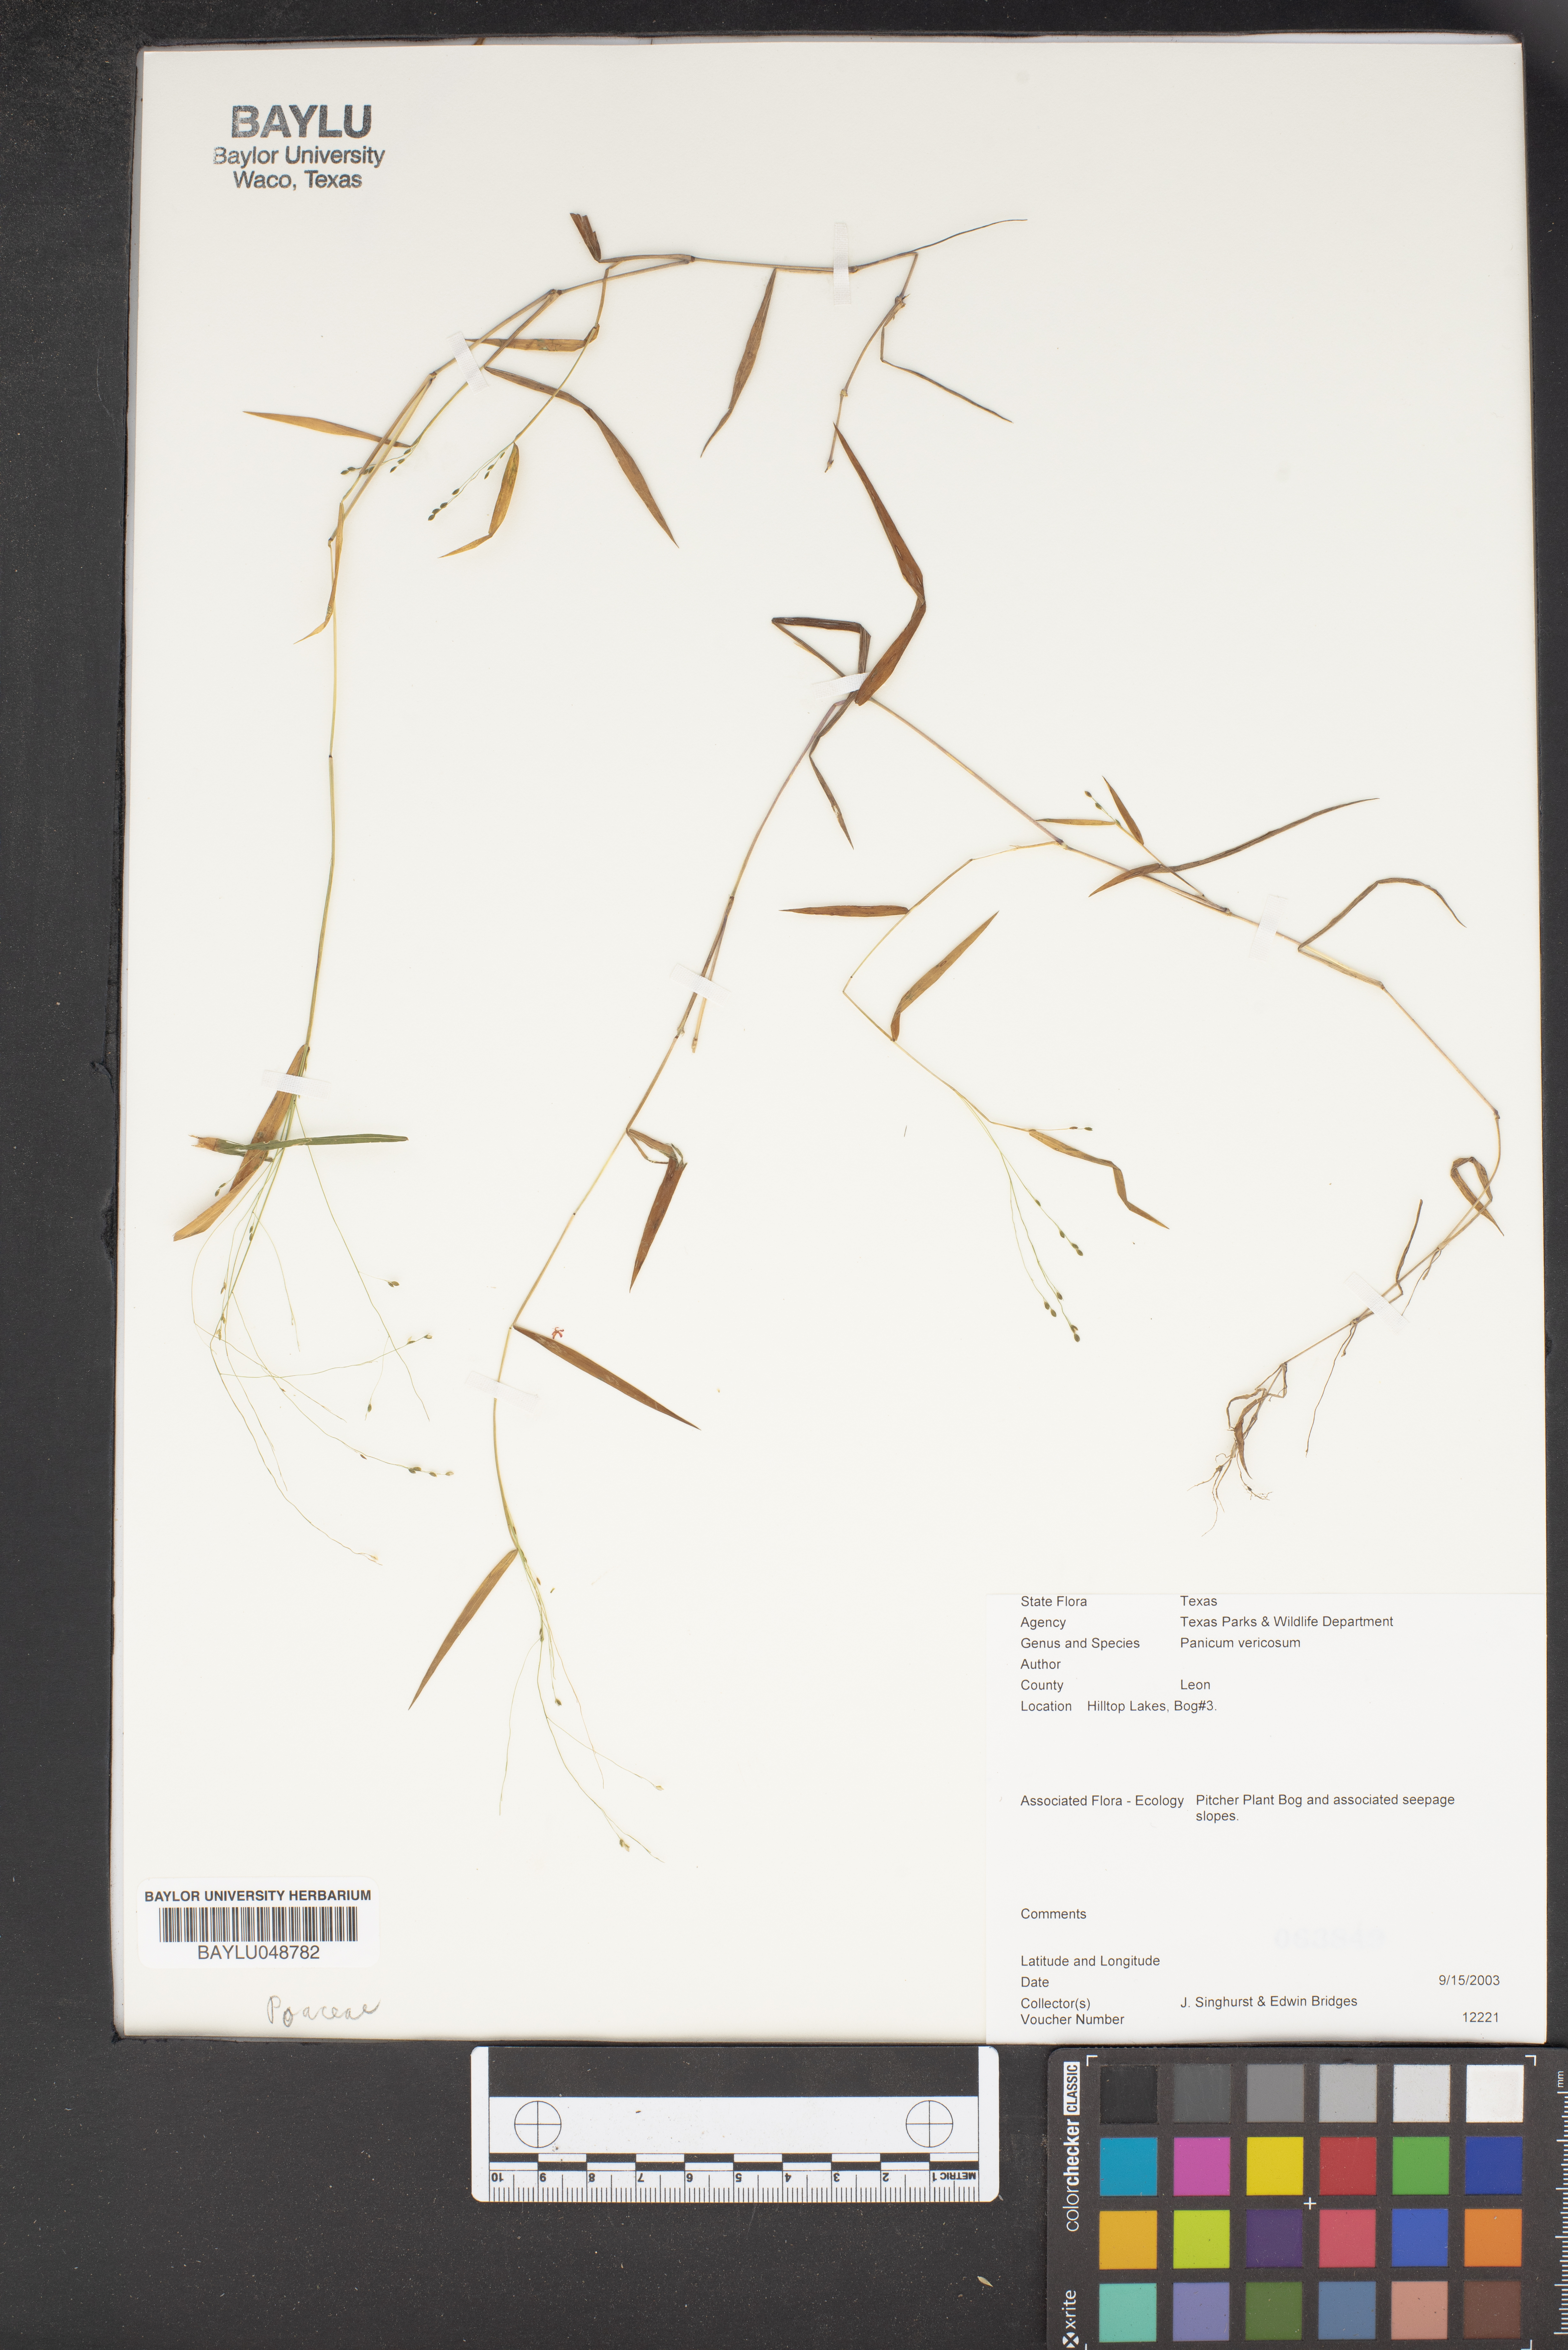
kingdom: Plantae
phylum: Tracheophyta
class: Liliopsida
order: Poales
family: Poaceae
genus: Kellochloa
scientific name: Kellochloa verrucosa
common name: Warty panic grass
